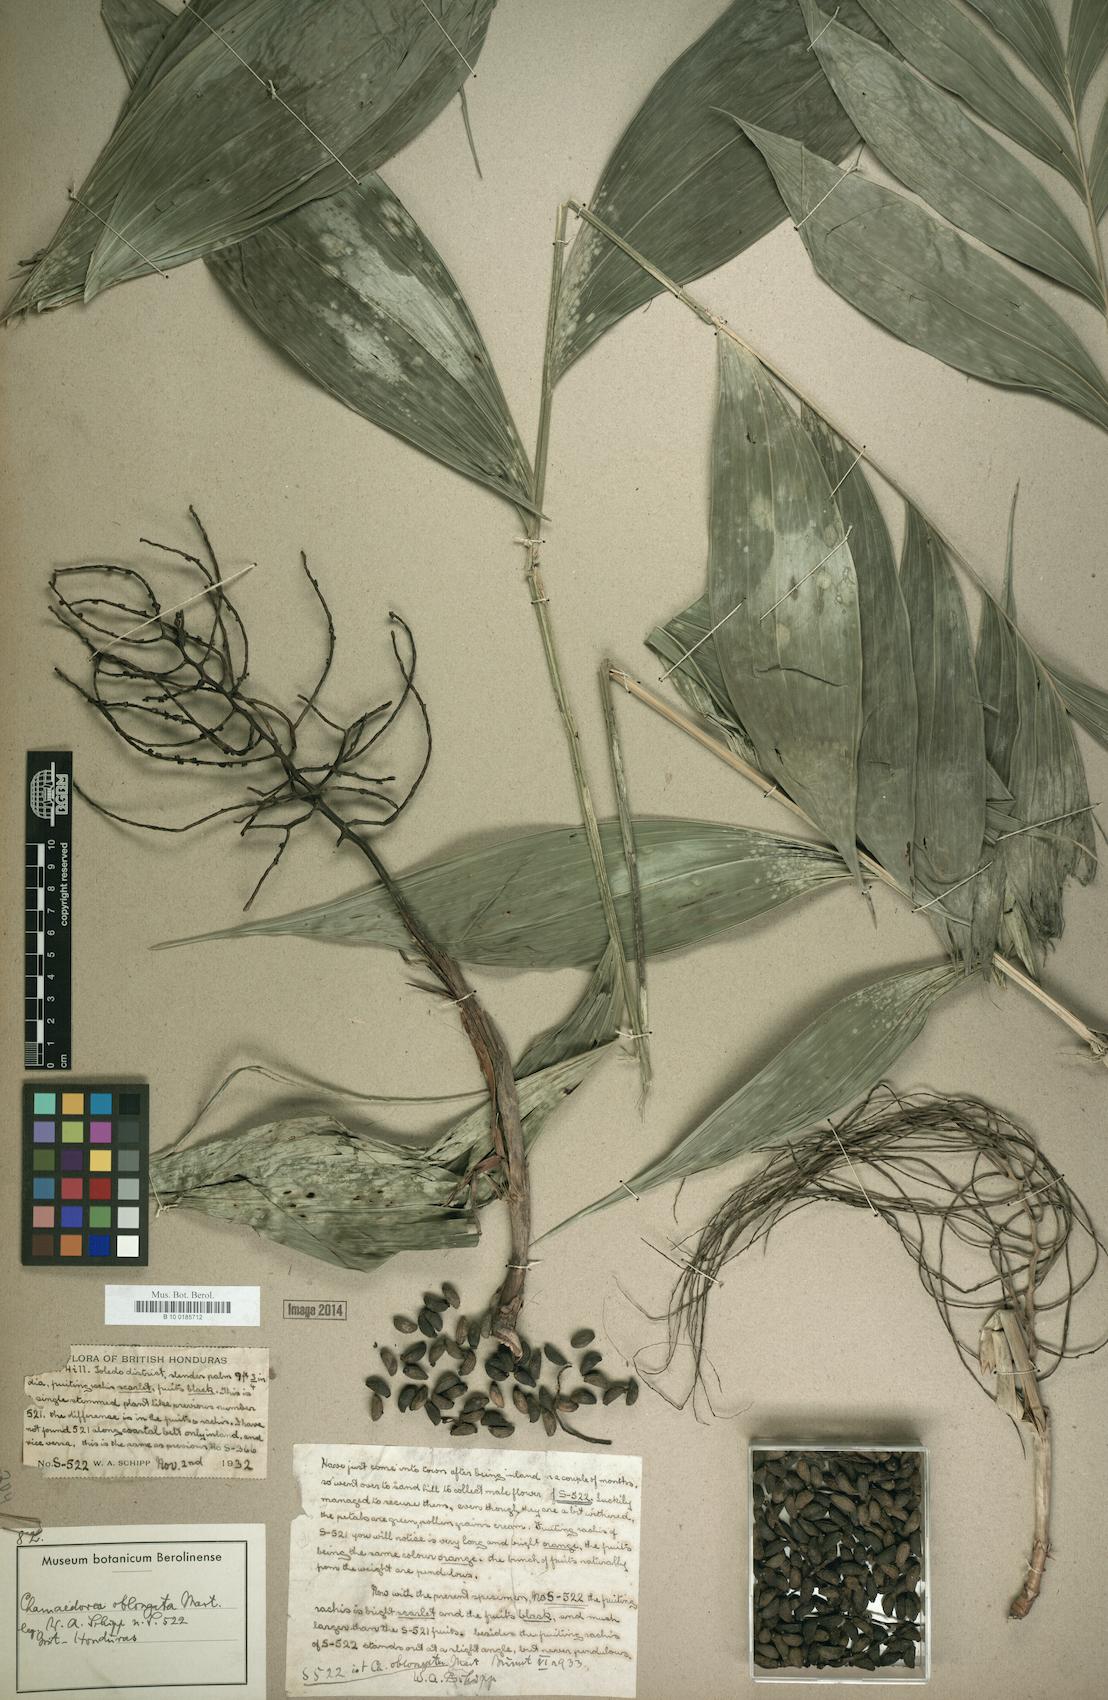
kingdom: Plantae
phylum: Tracheophyta
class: Liliopsida
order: Arecales
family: Arecaceae
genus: Chamaedorea
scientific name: Chamaedorea oblongata
